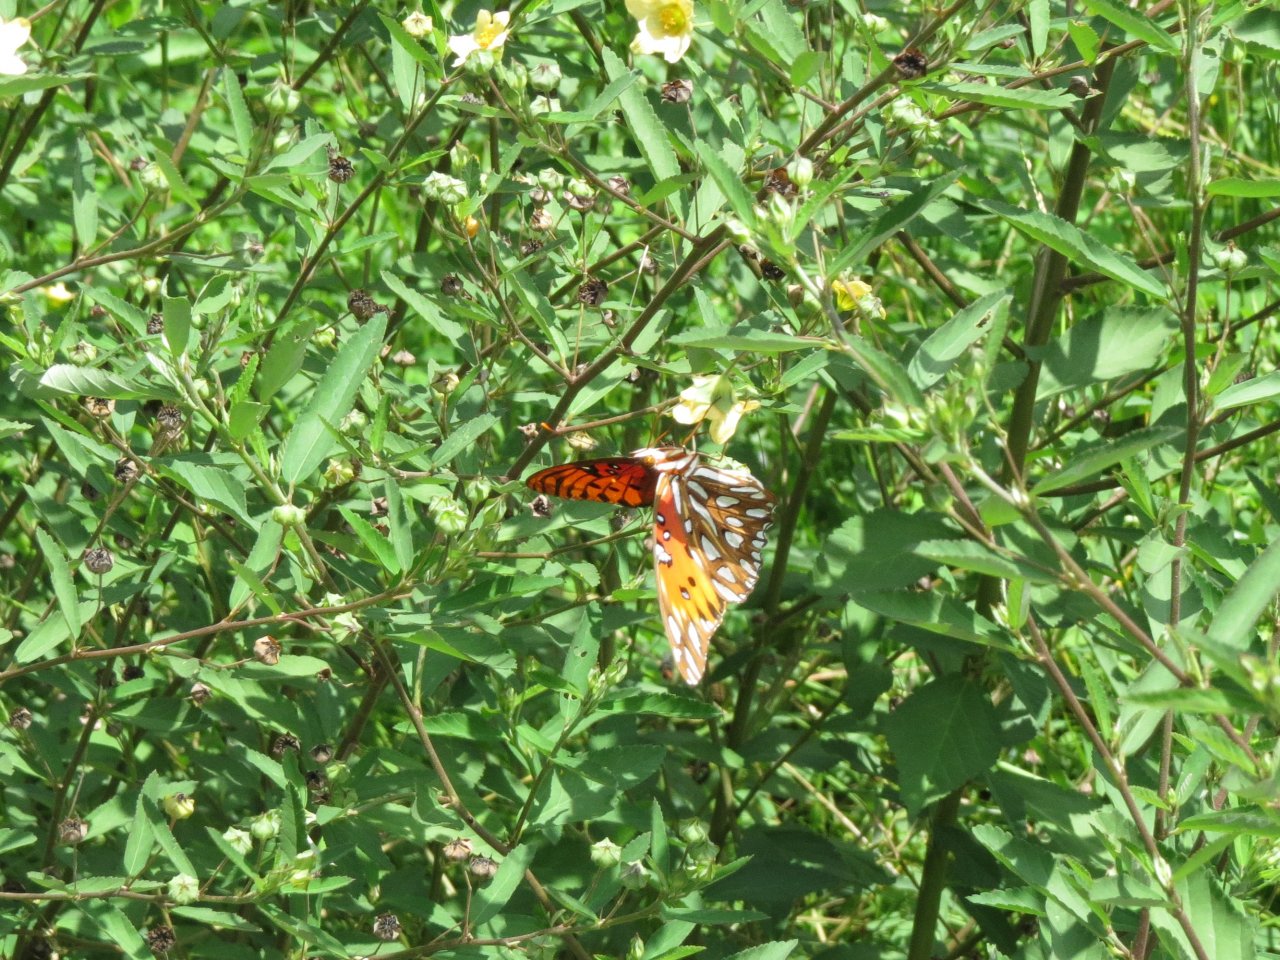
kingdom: Animalia
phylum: Arthropoda
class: Insecta
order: Lepidoptera
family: Nymphalidae
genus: Dione
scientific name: Dione vanillae
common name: Gulf Fritillary
